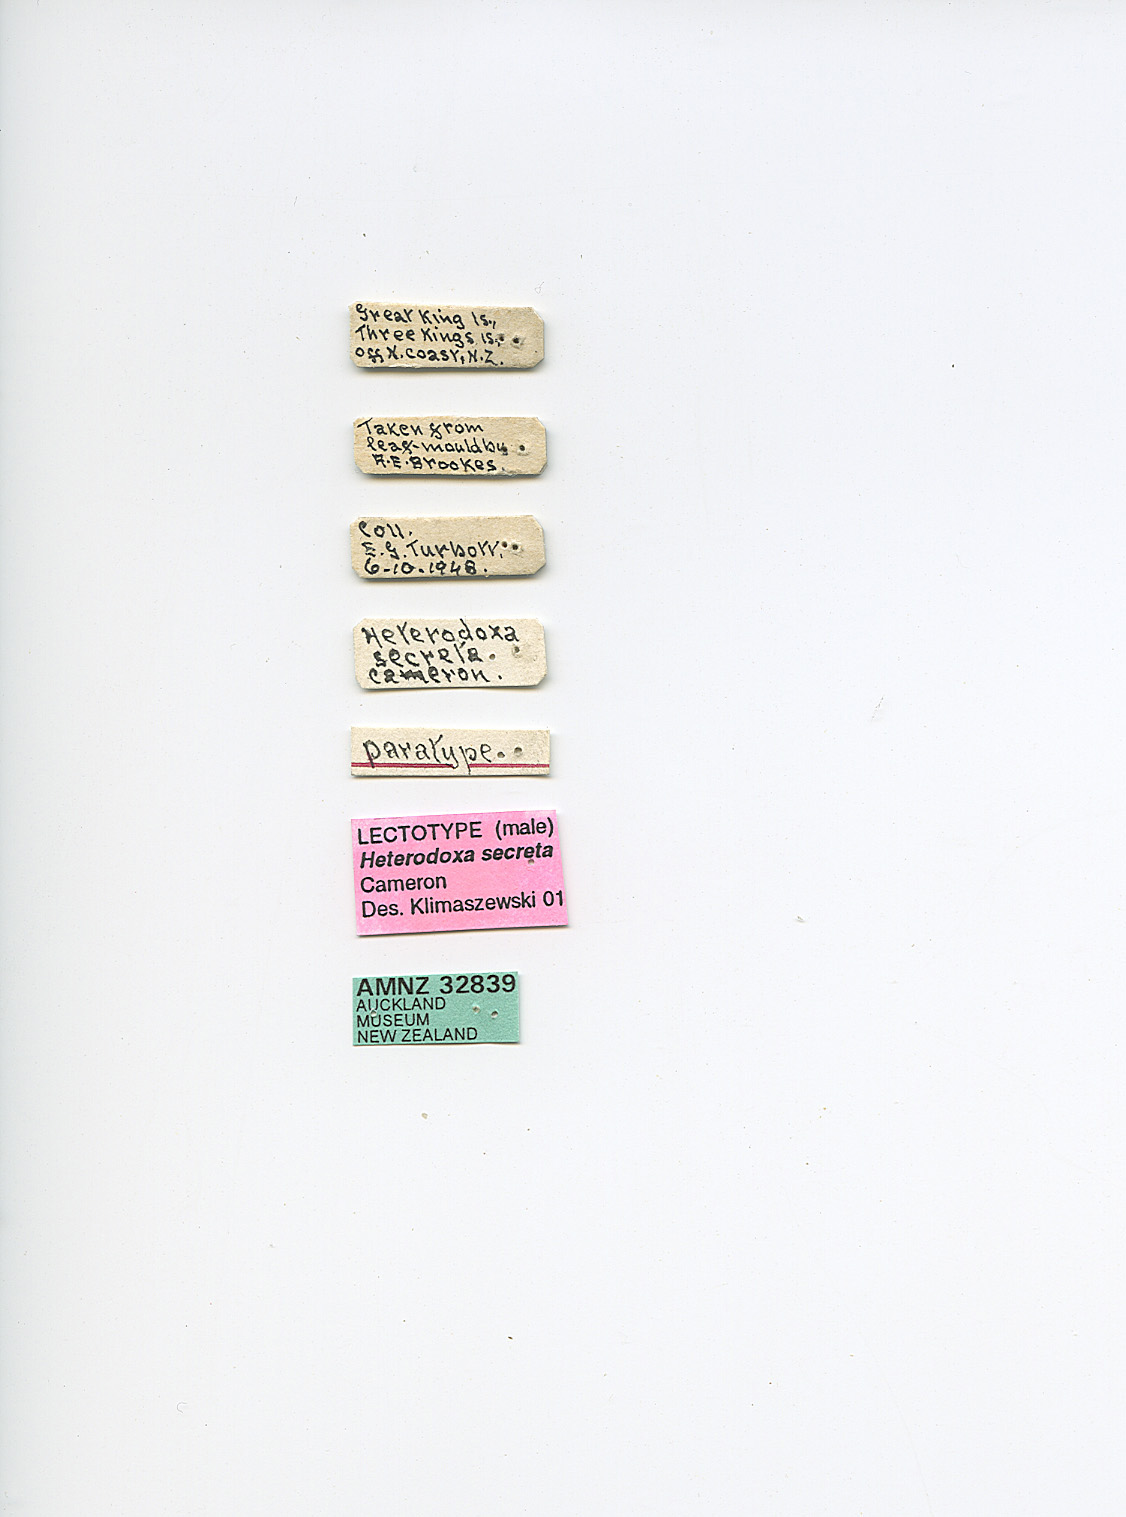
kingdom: Animalia
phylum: Arthropoda
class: Insecta
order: Coleoptera
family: Staphylinidae
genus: Neodoxa
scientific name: Neodoxa secreta
